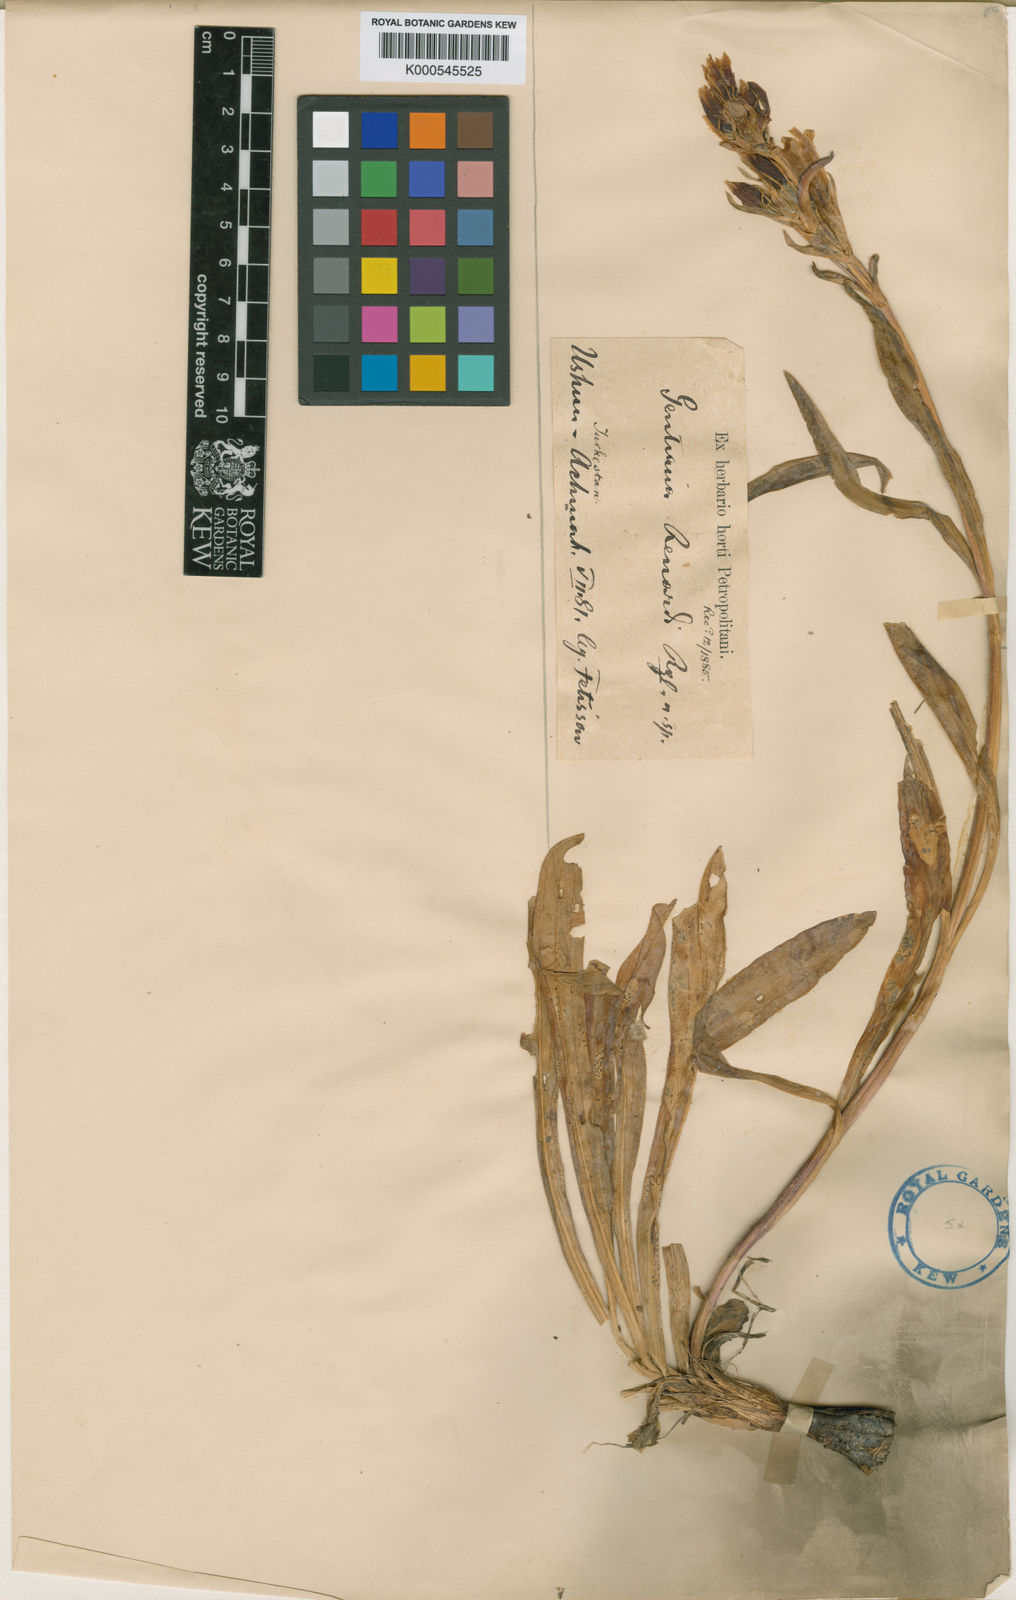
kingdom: Plantae
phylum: Tracheophyta
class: Magnoliopsida
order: Gentianales
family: Gentianaceae
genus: Gentiana
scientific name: Gentiana olgae
